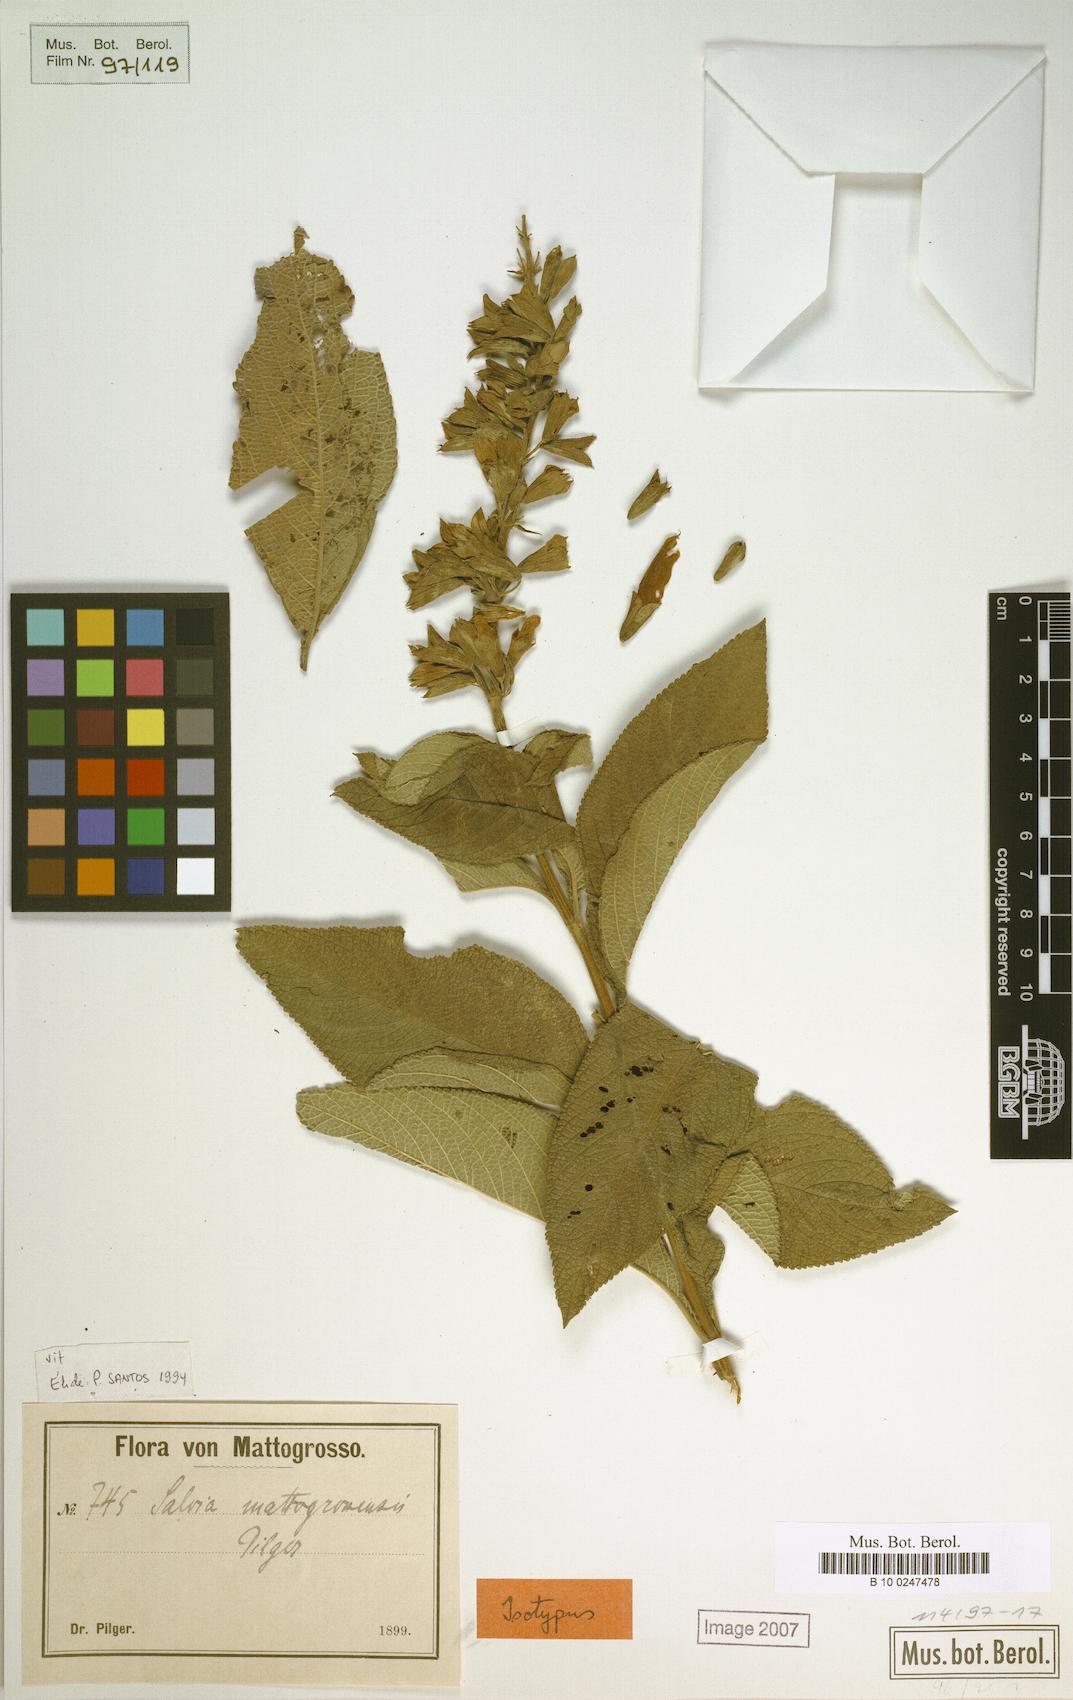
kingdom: Plantae
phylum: Tracheophyta
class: Magnoliopsida
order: Lamiales
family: Lamiaceae
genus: Salvia
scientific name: Salvia mattogrossensis
